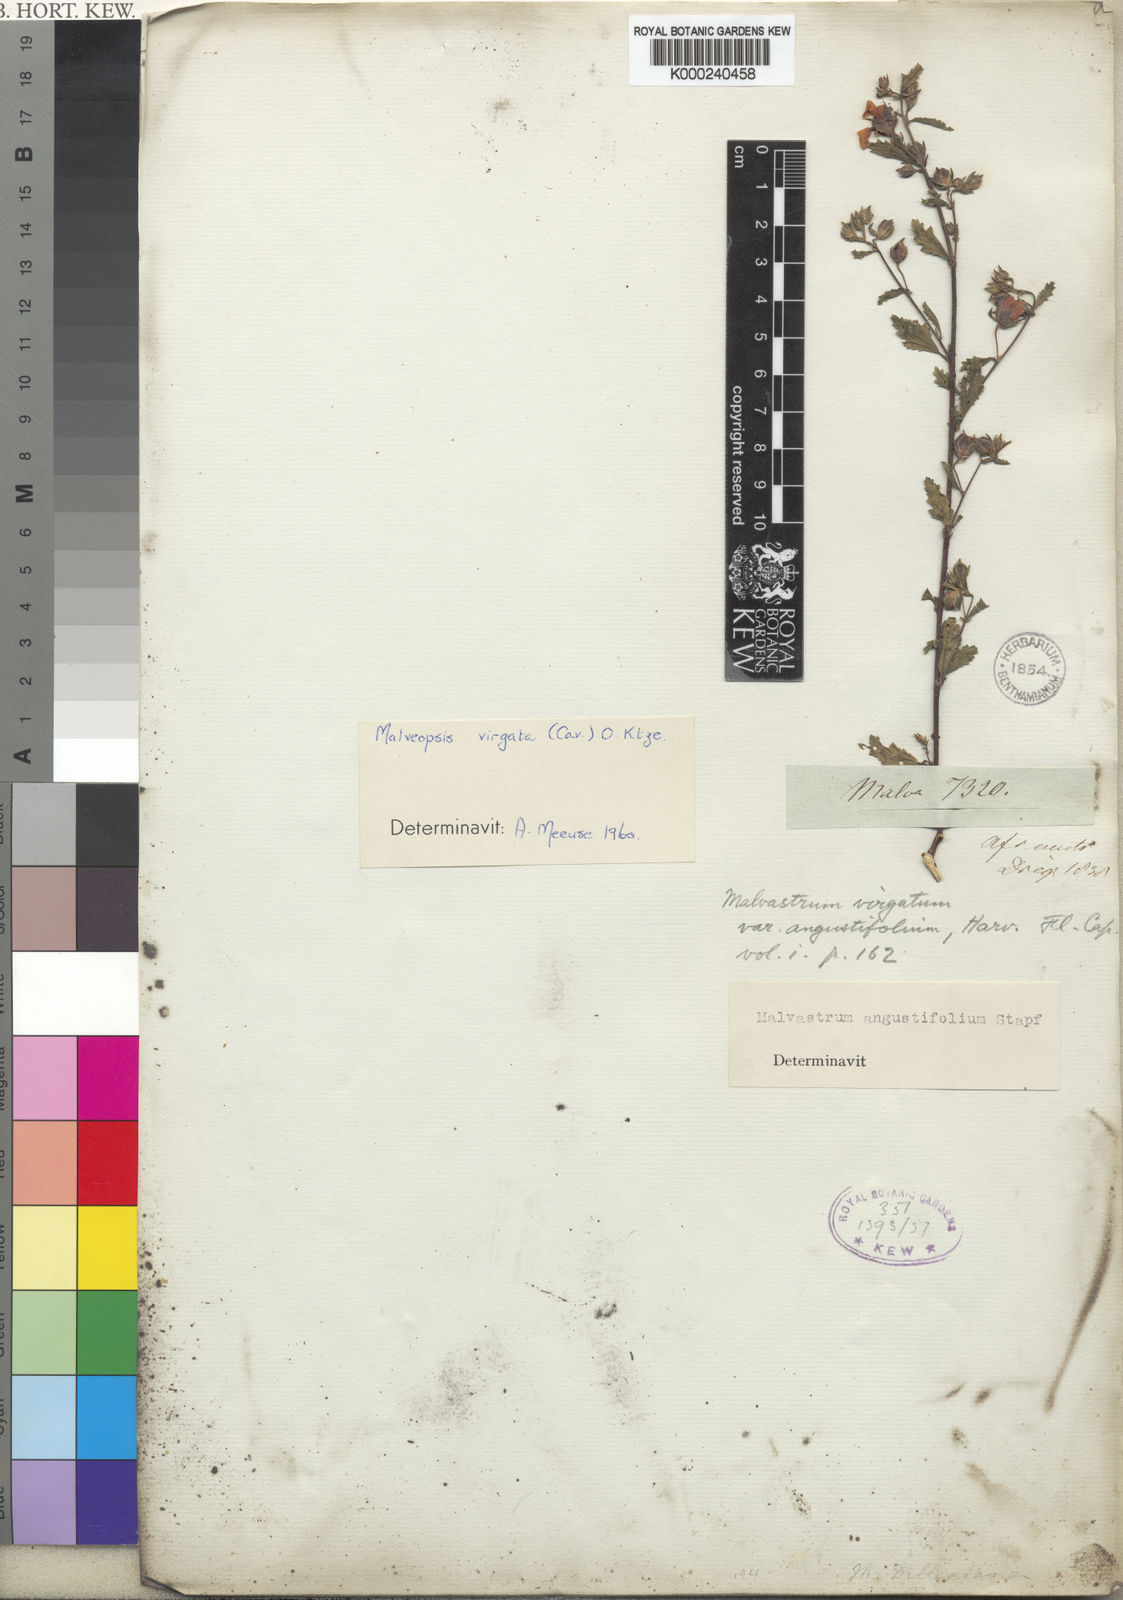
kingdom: Plantae
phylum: Tracheophyta
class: Magnoliopsida
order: Malvales
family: Malvaceae
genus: Anisodontea
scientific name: Anisodontea scabrosa
